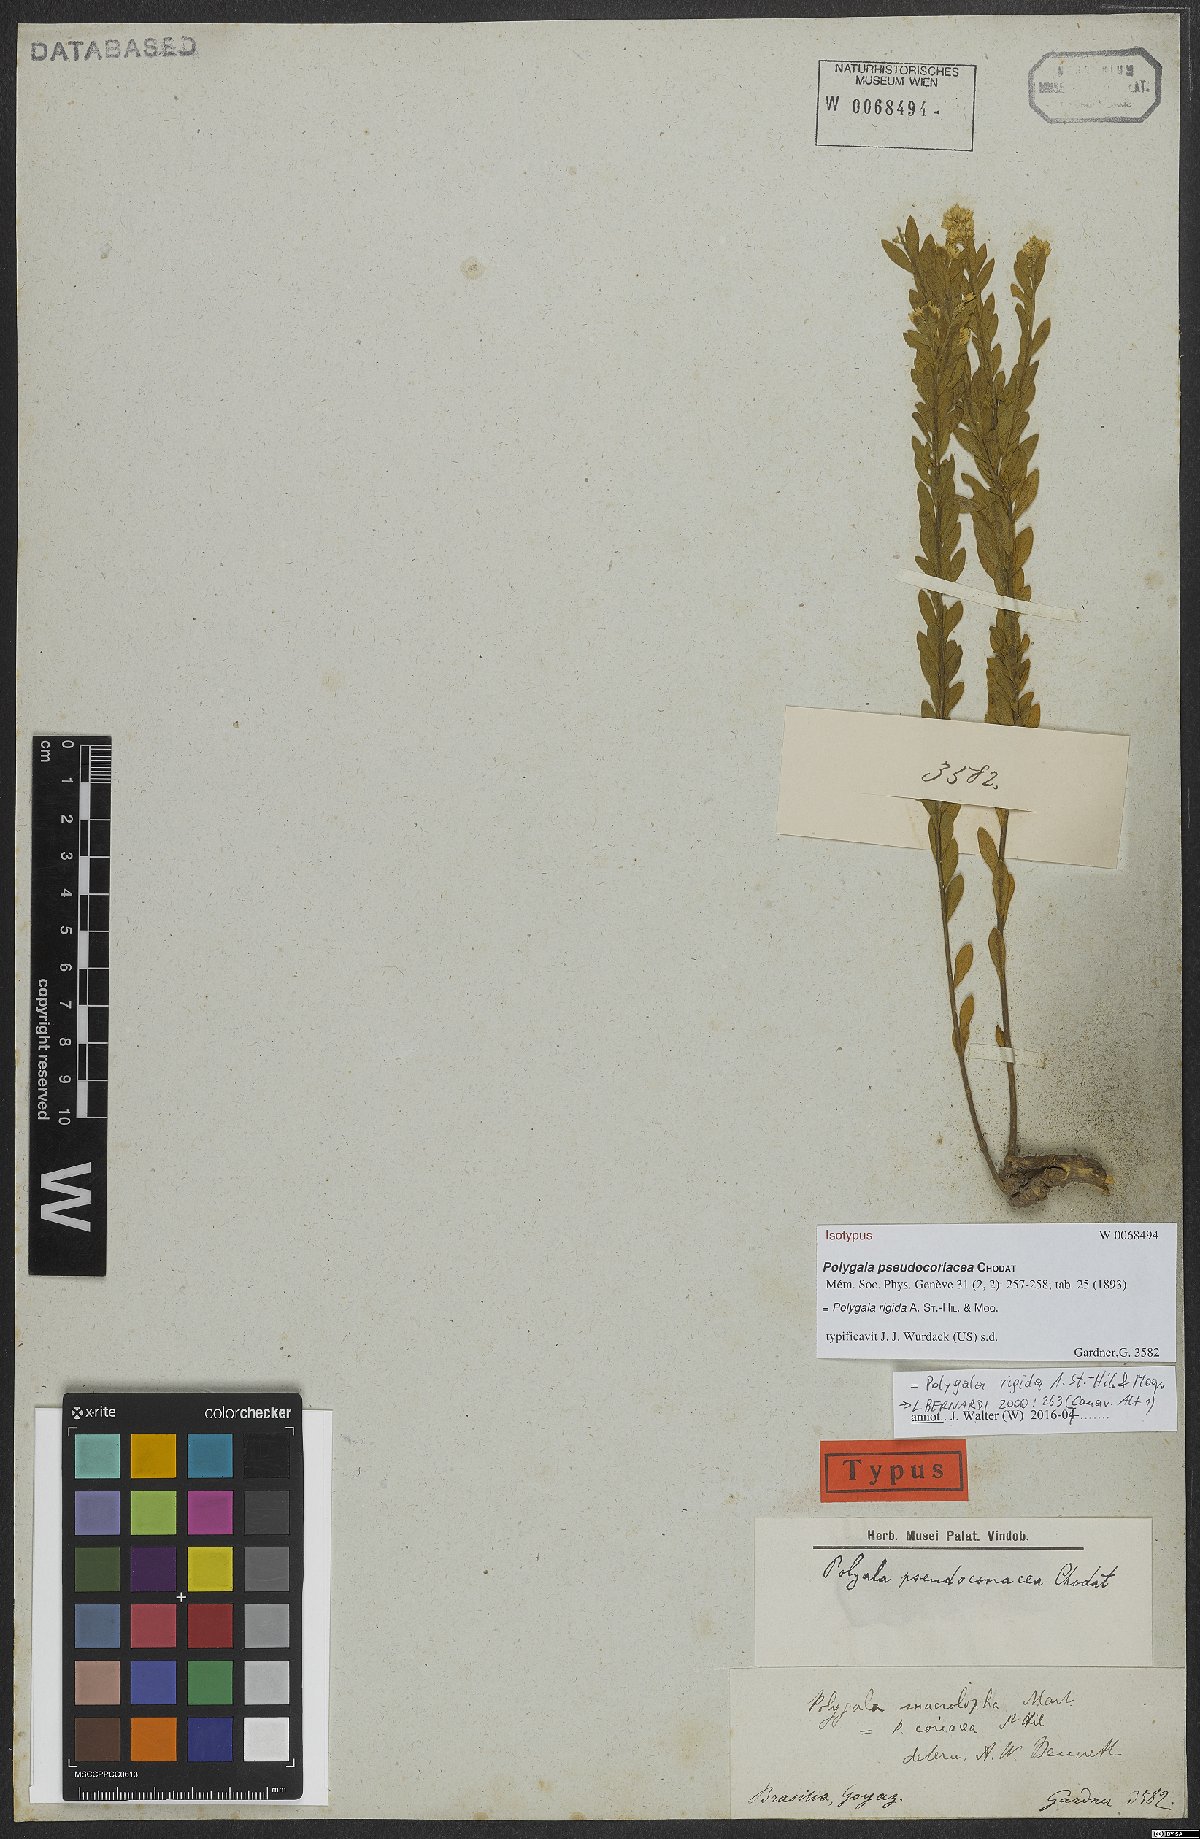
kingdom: Plantae
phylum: Tracheophyta
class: Magnoliopsida
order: Fabales
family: Polygalaceae
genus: Polygala
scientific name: Polygala rigida
